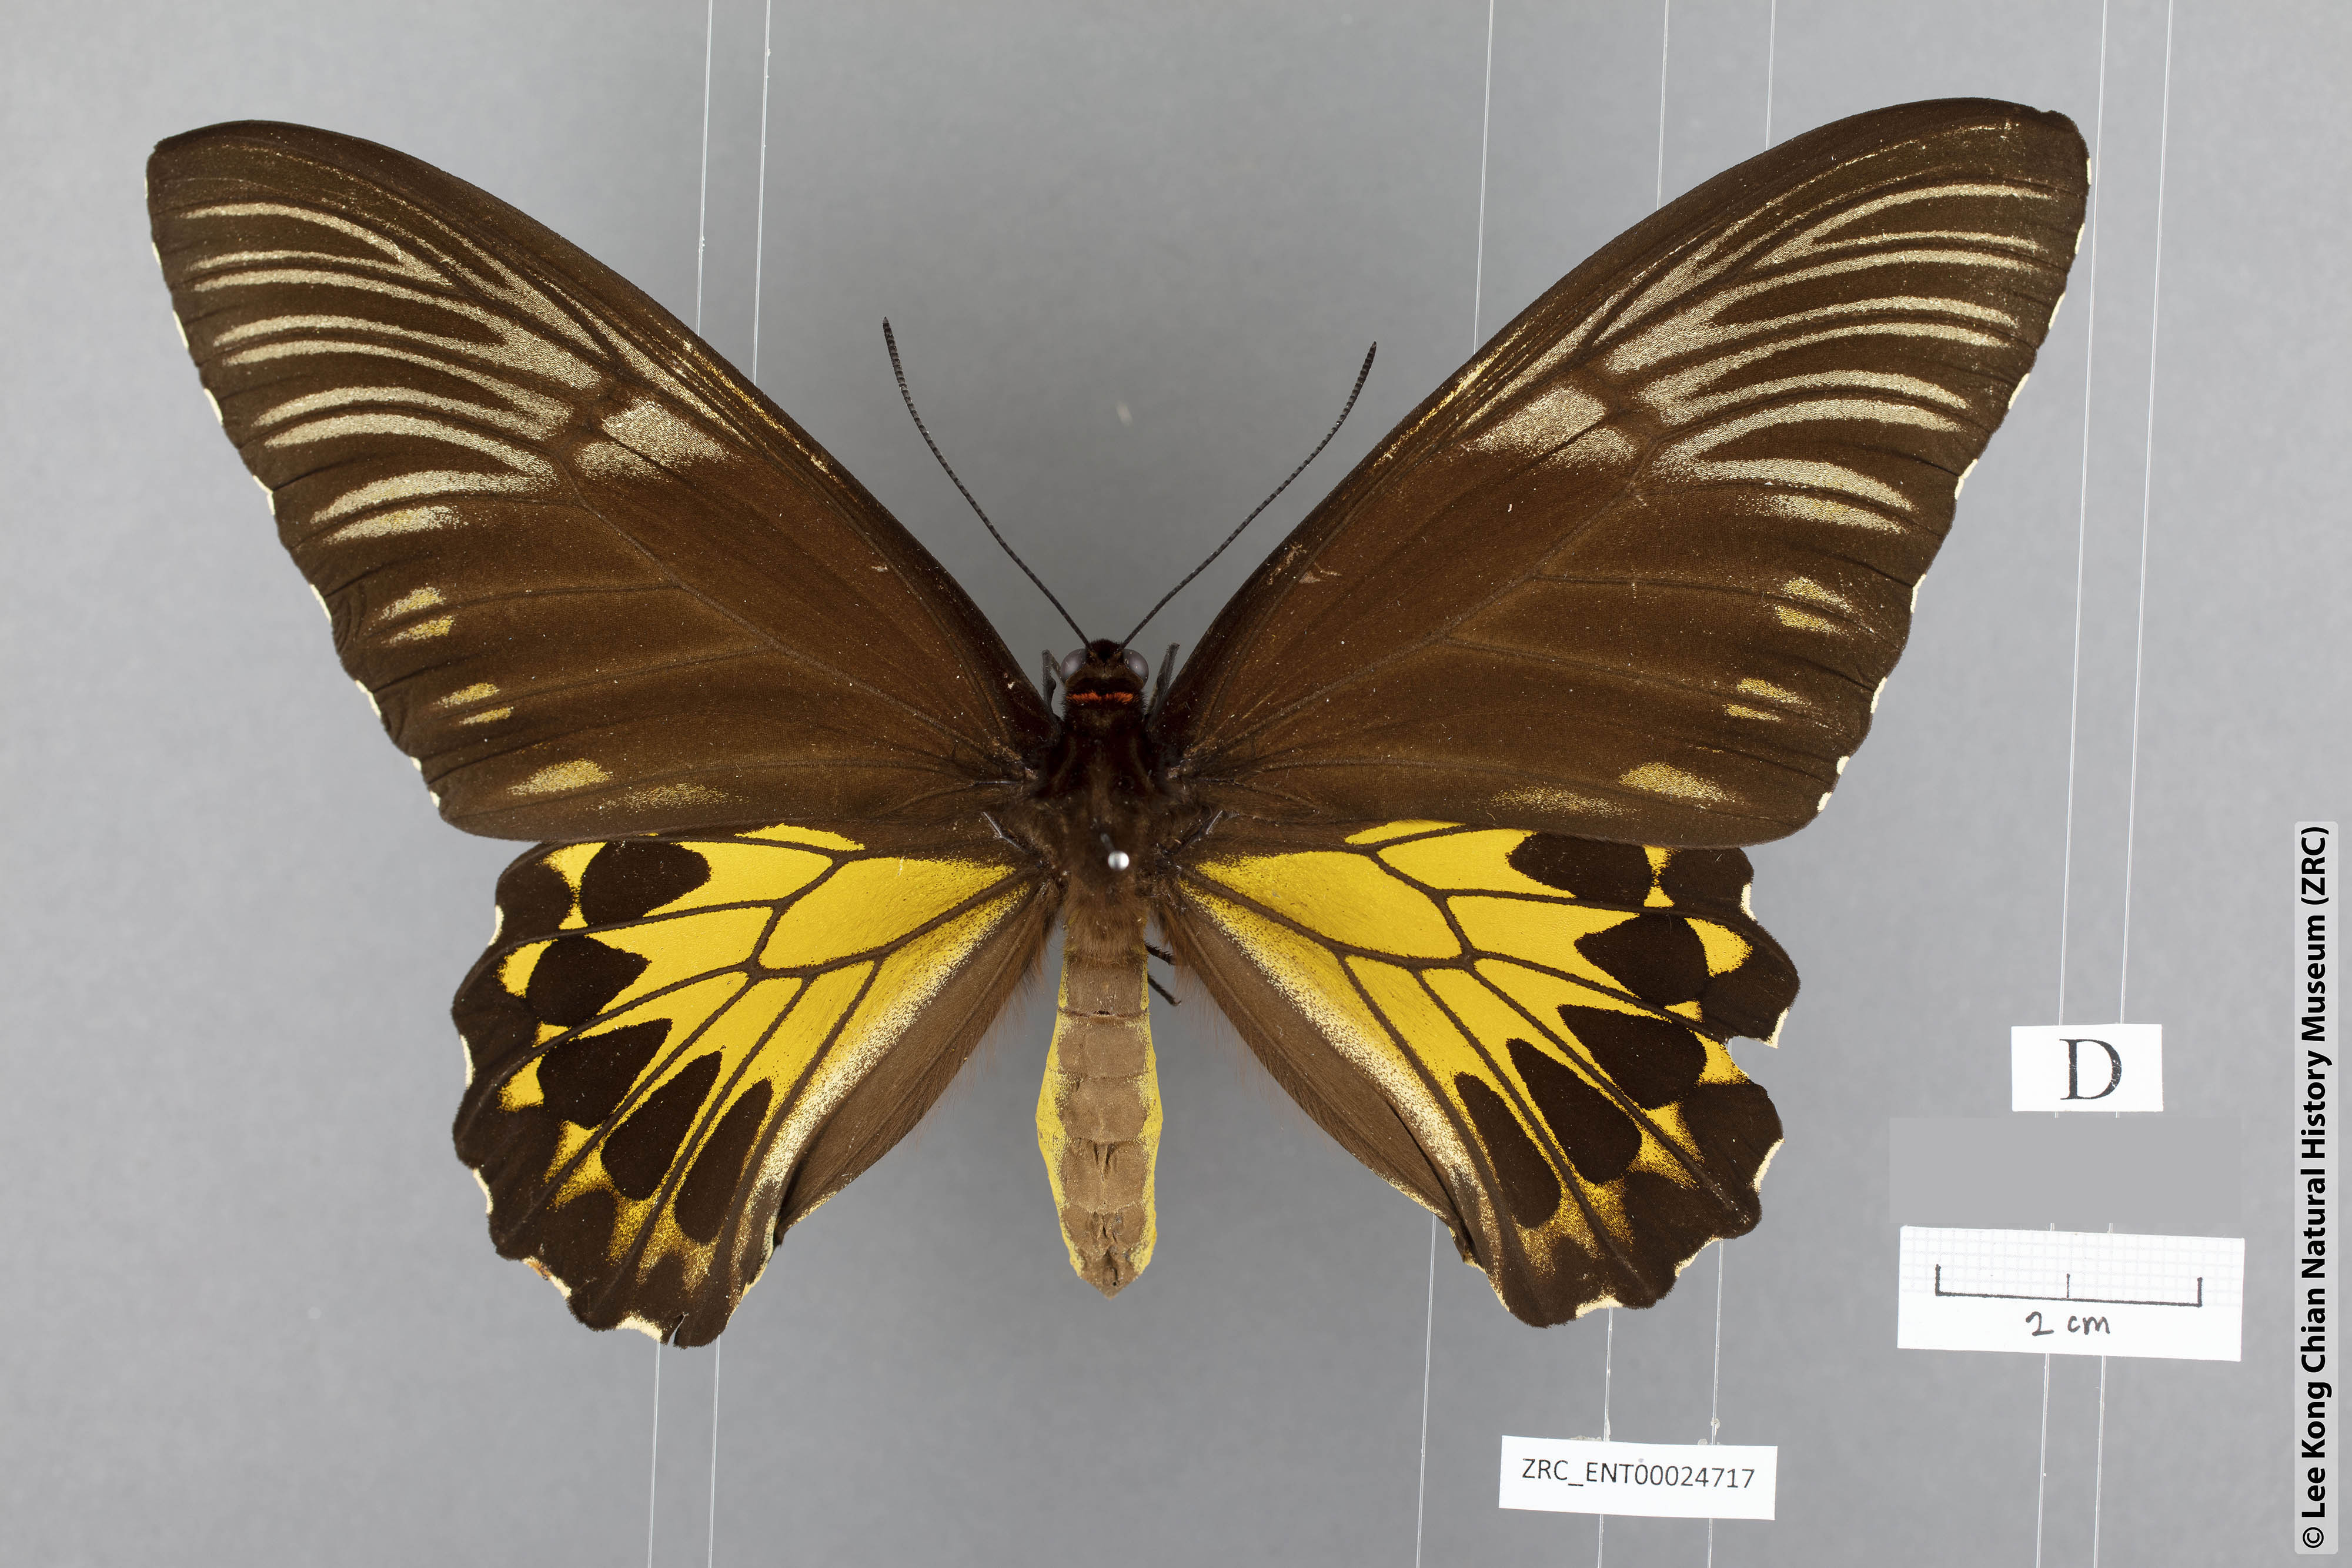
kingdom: Animalia
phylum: Arthropoda
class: Insecta
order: Lepidoptera
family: Papilionidae
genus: Troides
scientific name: Troides amphyrus
